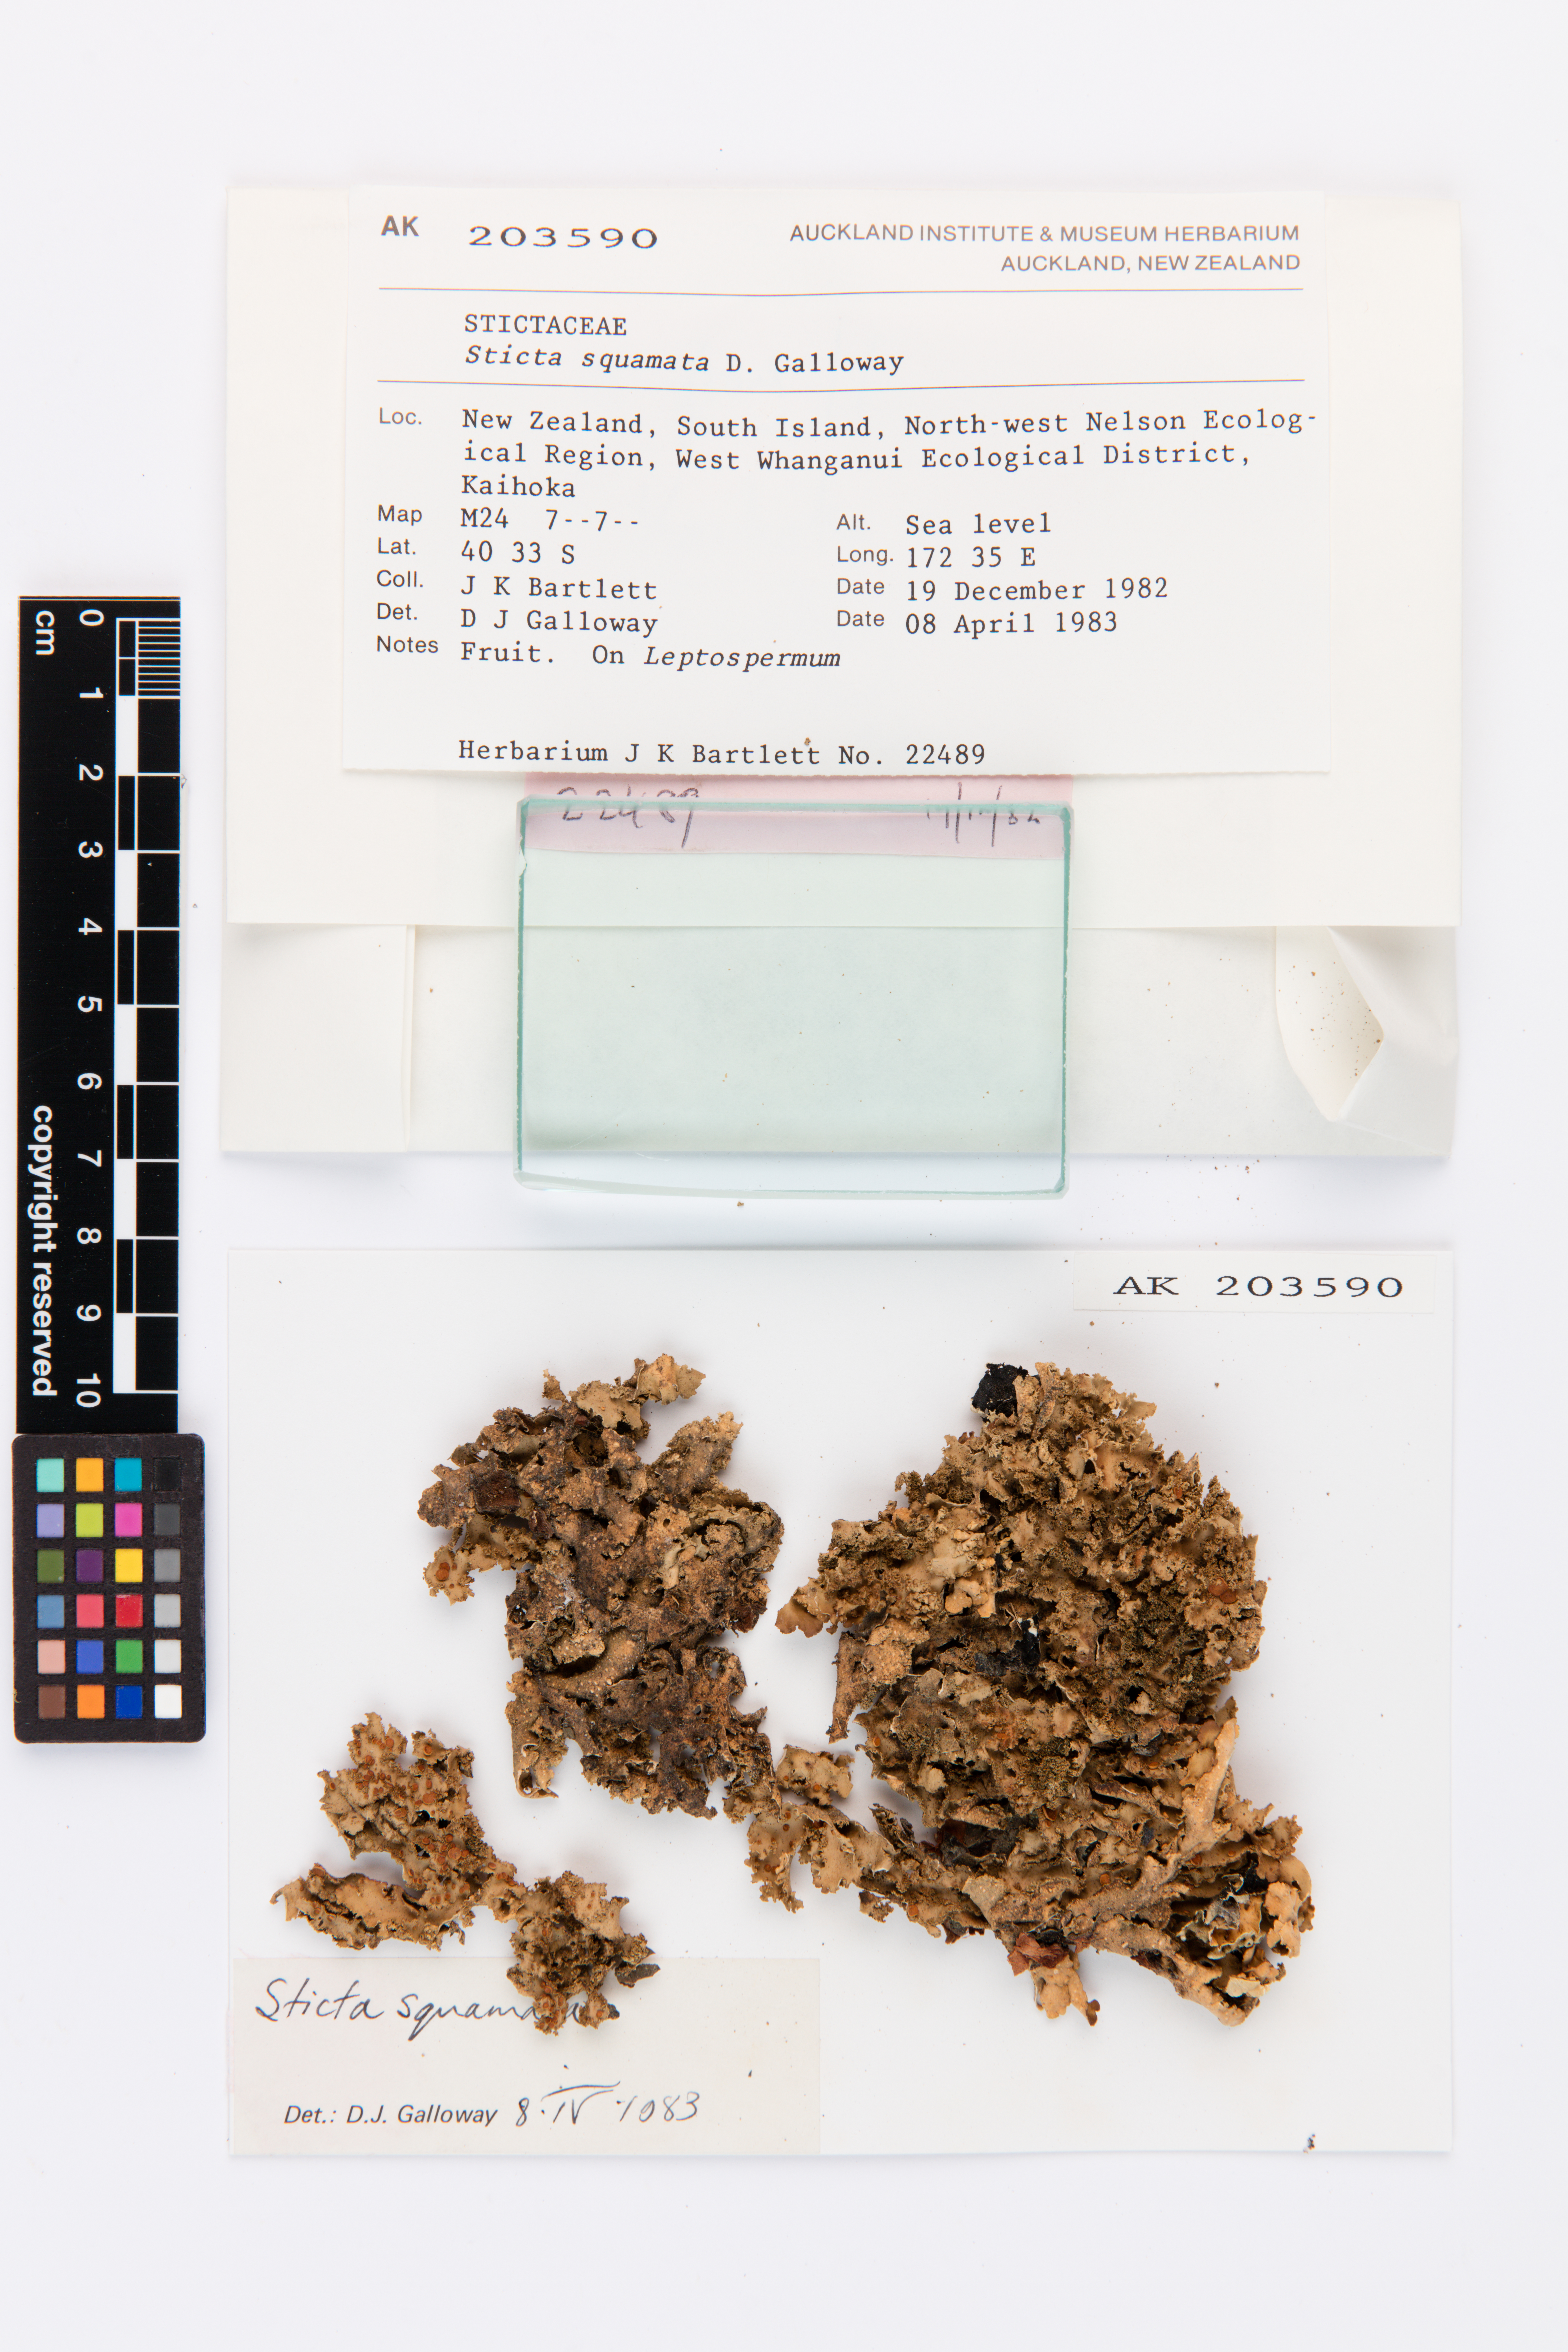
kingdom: Fungi
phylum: Ascomycota
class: Lecanoromycetes
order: Peltigerales
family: Lobariaceae
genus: Sticta
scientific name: Sticta squamata
